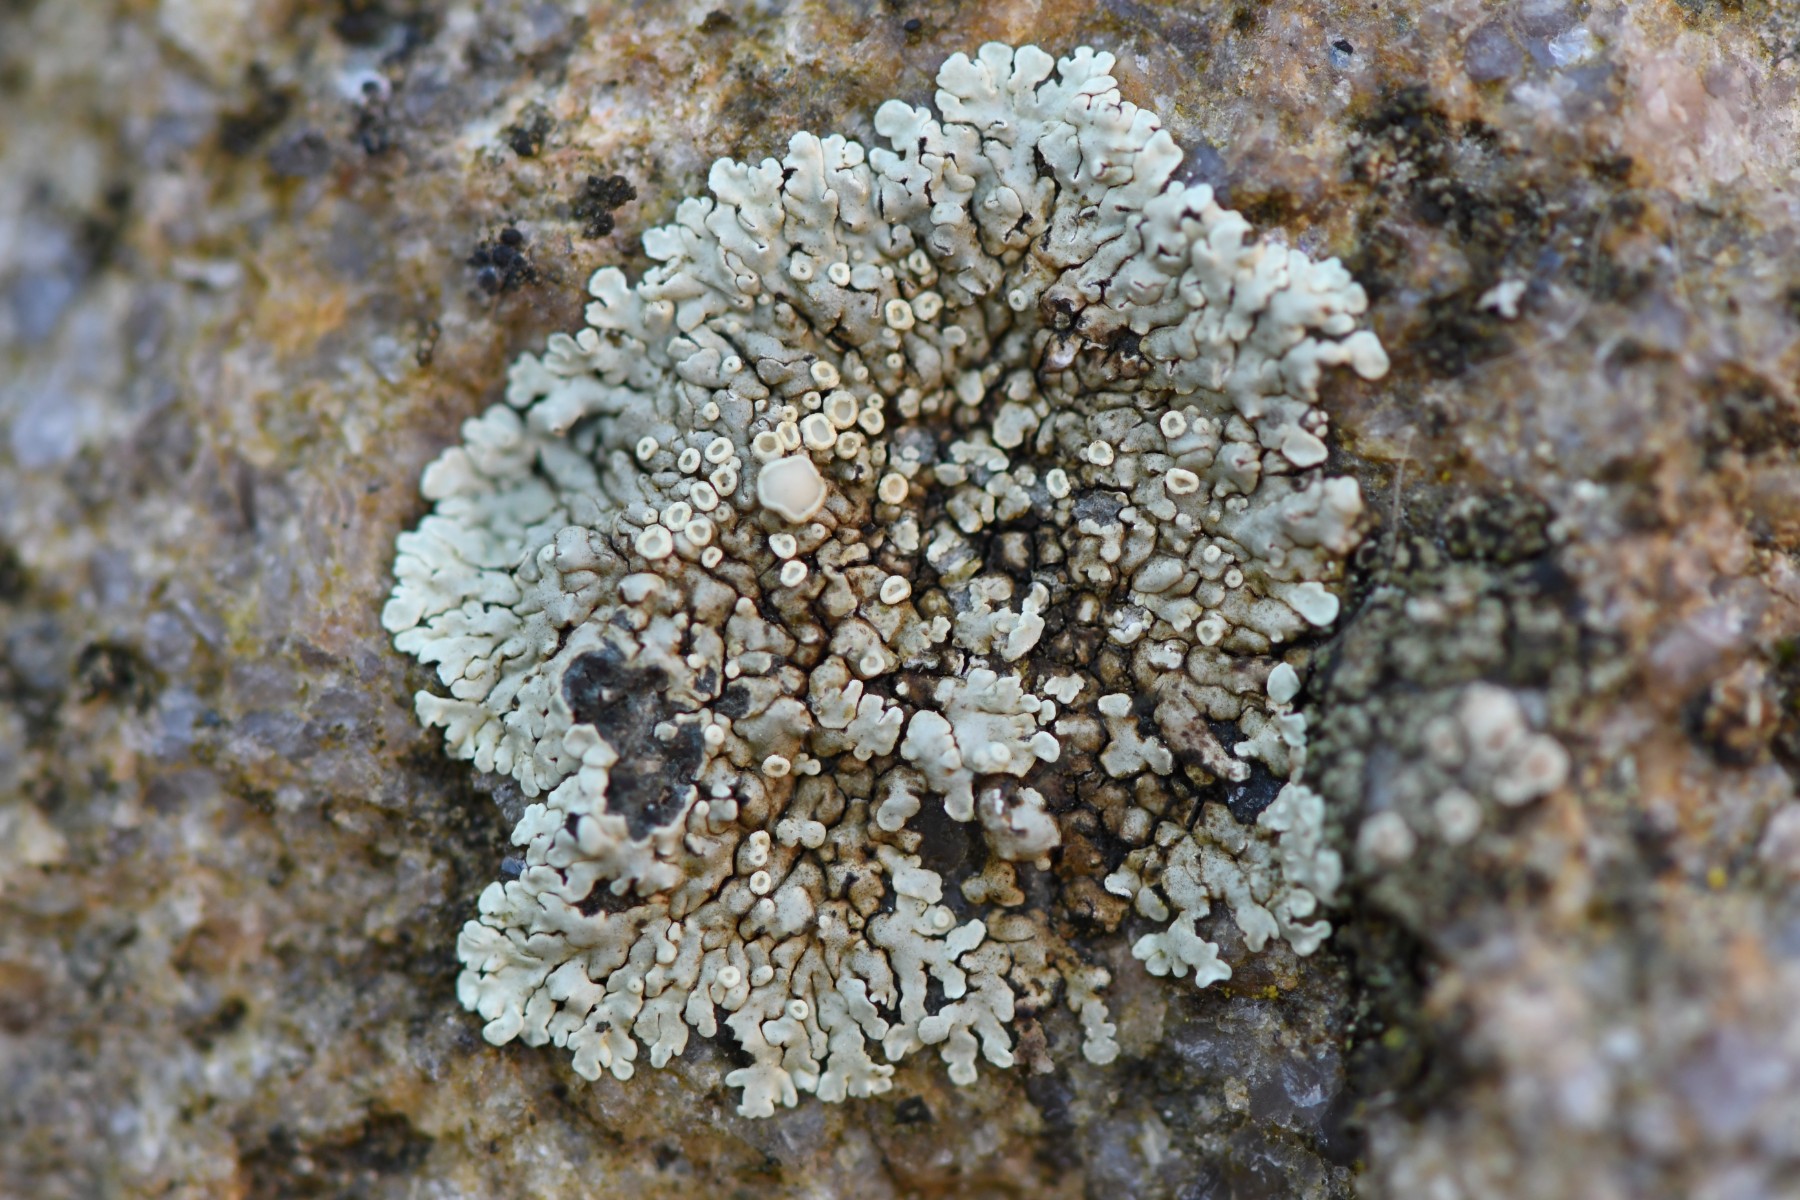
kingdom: Fungi
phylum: Ascomycota
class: Lecanoromycetes
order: Lecanorales
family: Lecanoraceae
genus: Protoparmeliopsis
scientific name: Protoparmeliopsis muralis
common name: randfliget kantskivelav
